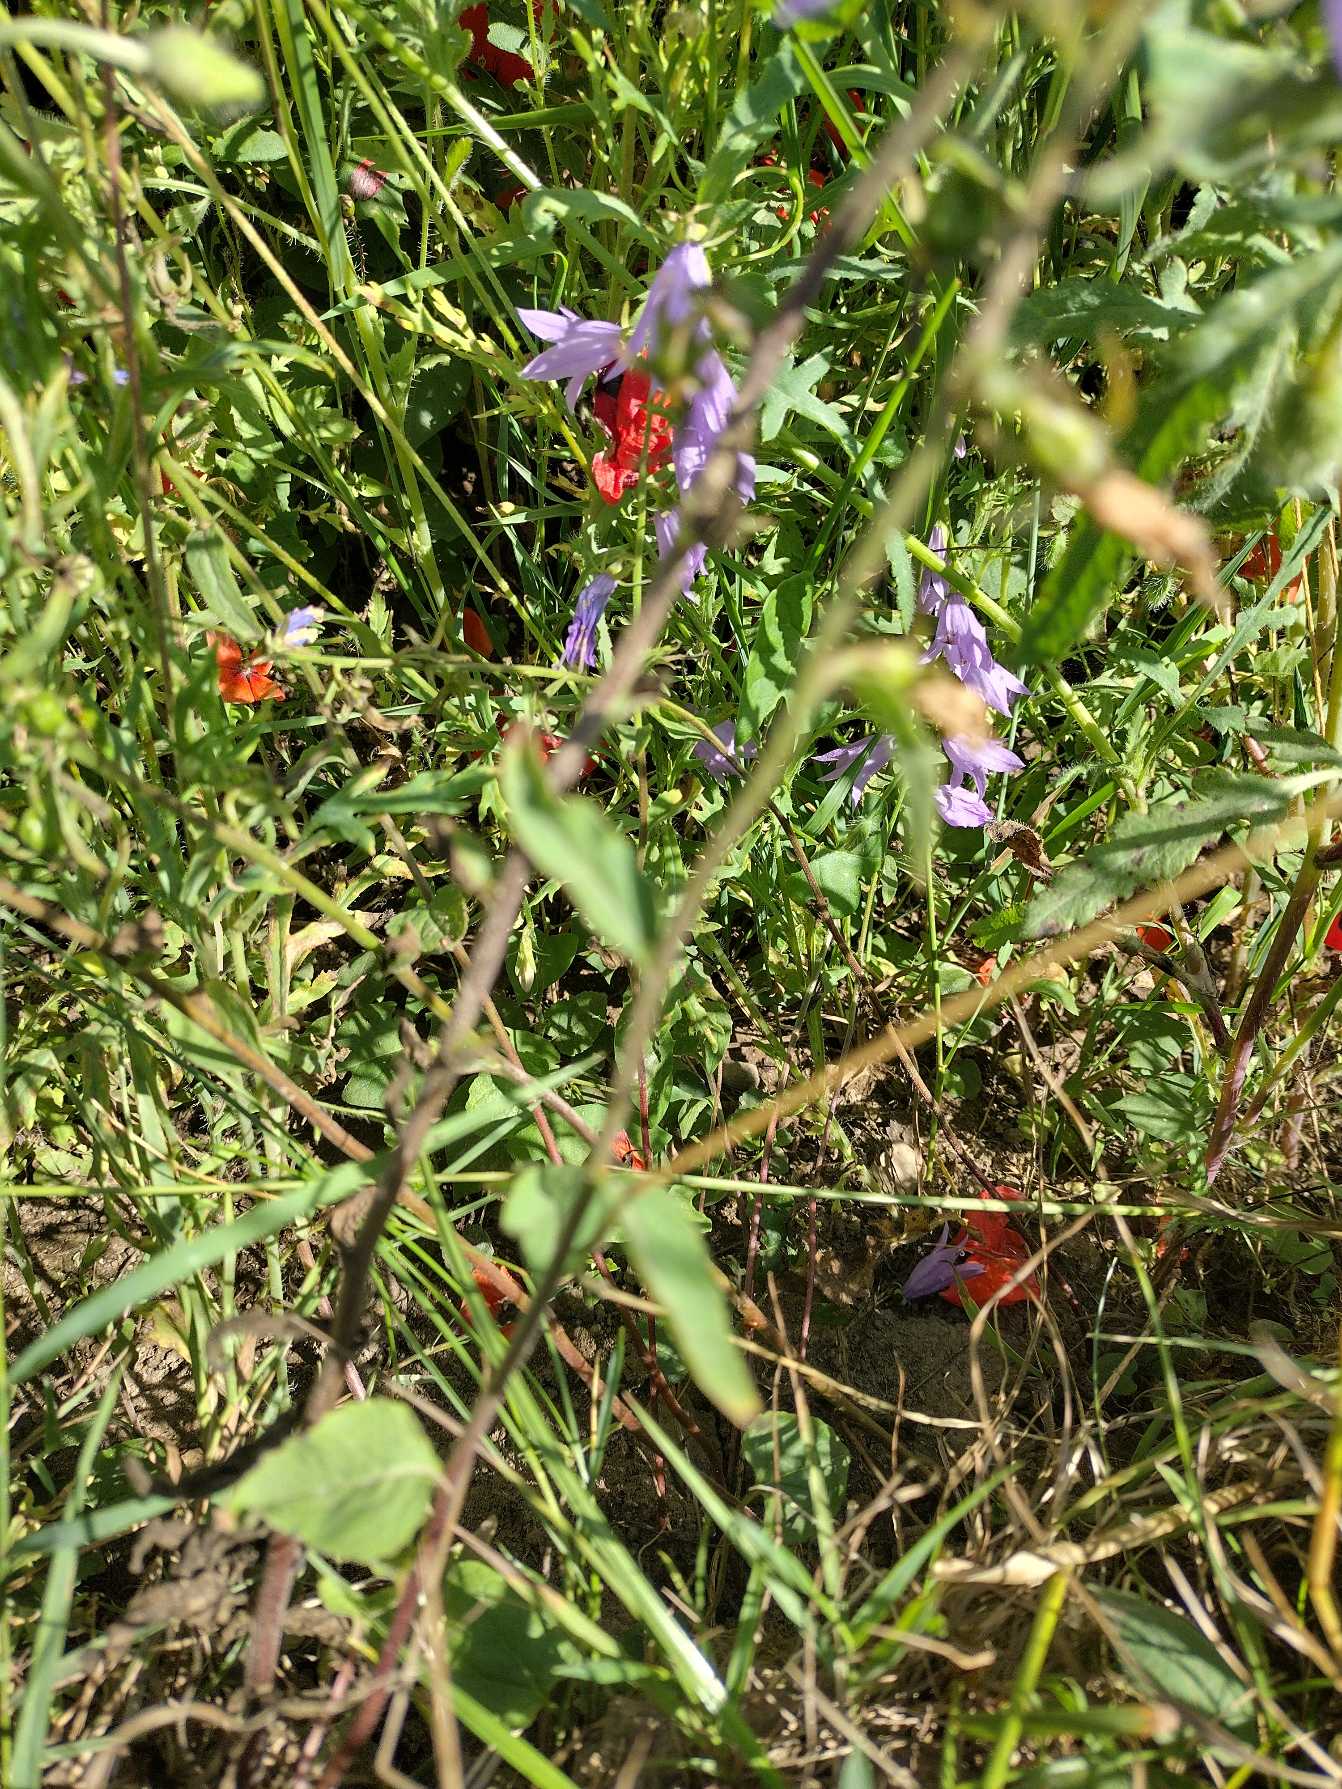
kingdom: Plantae
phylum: Tracheophyta
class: Magnoliopsida
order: Asterales
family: Campanulaceae
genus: Campanula
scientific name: Campanula rapunculoides
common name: Ensidig klokke
